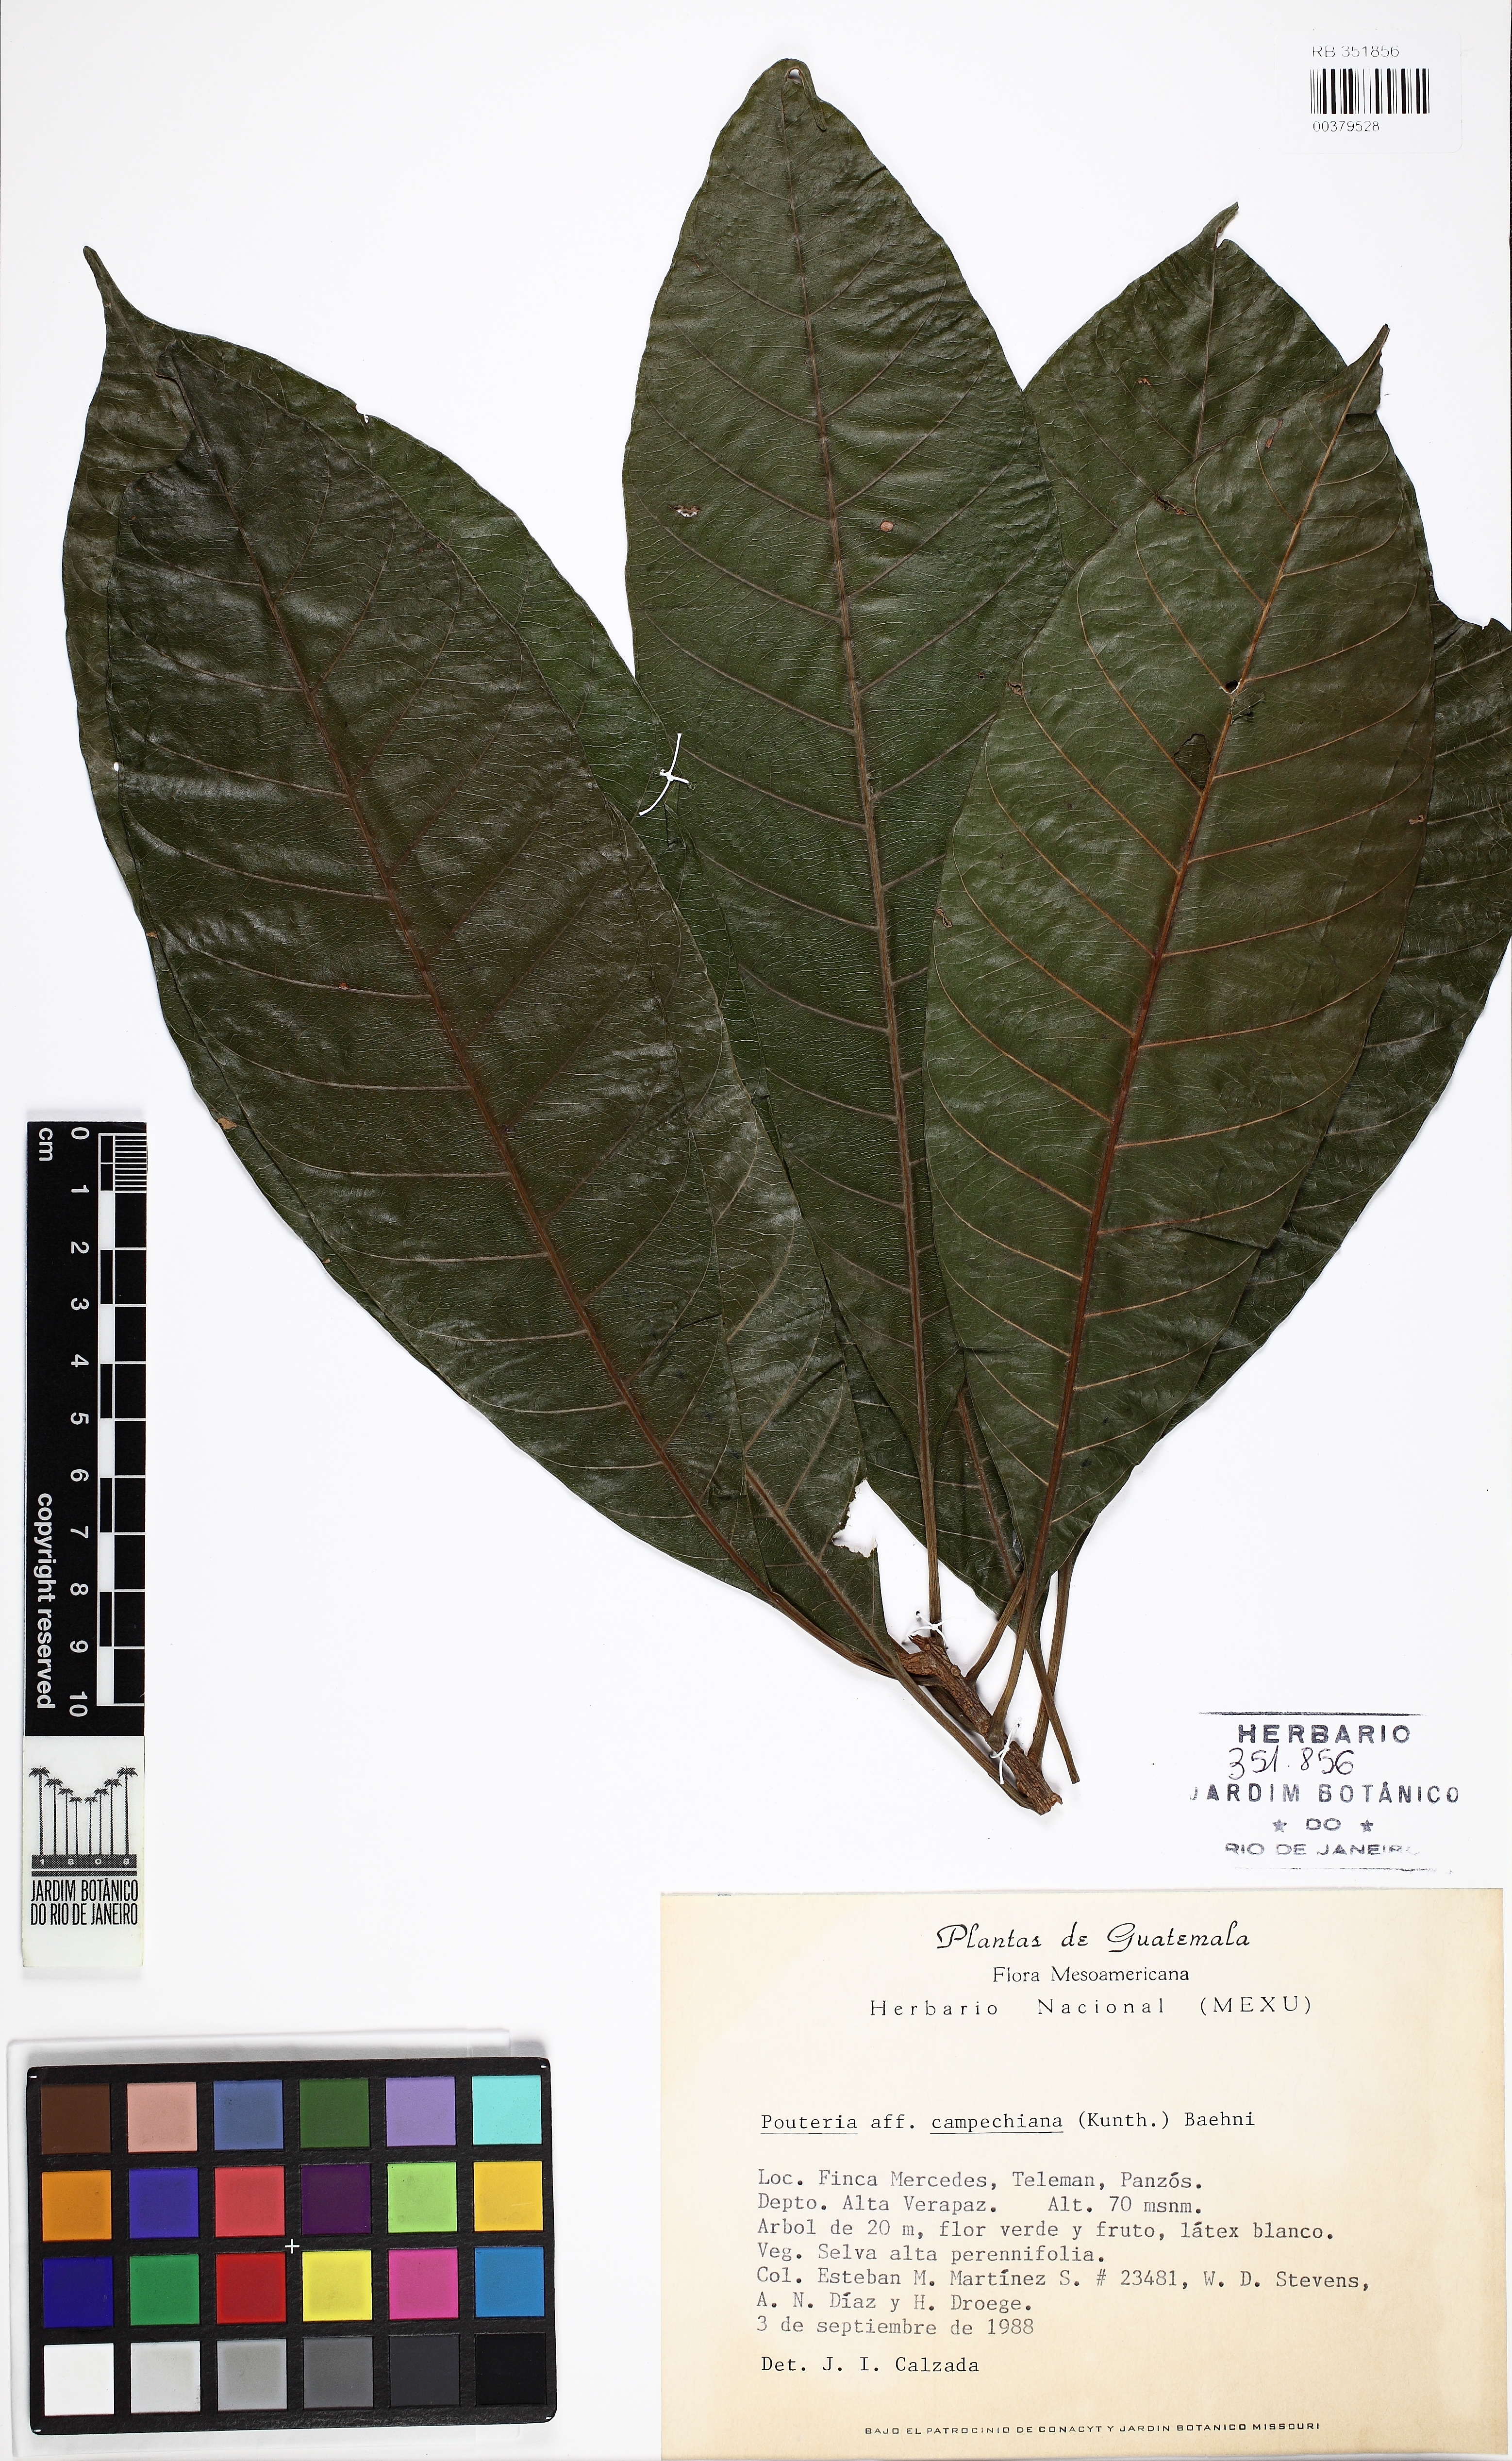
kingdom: Plantae
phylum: Tracheophyta
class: Magnoliopsida
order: Ericales
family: Sapotaceae
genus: Pouteria
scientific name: Pouteria campechiana
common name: Canistel
